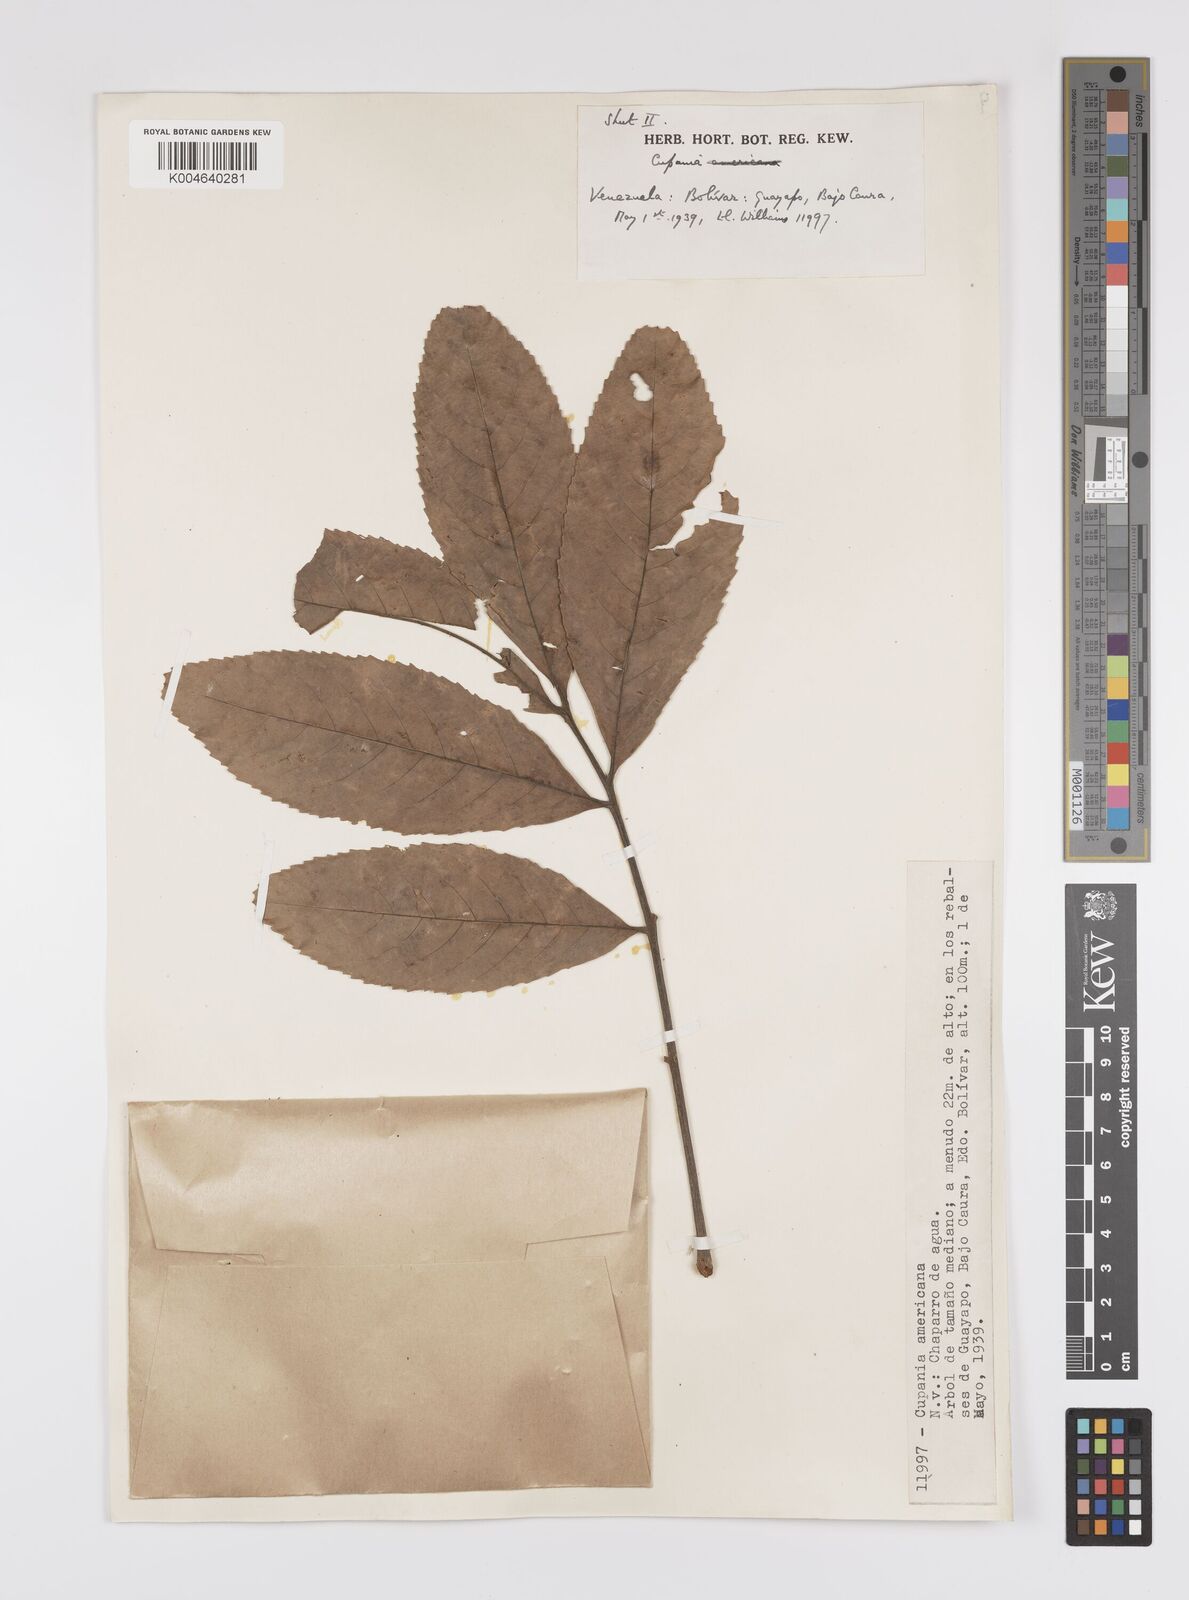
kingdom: Plantae
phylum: Tracheophyta
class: Magnoliopsida
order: Sapindales
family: Sapindaceae
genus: Cupania
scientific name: Cupania
